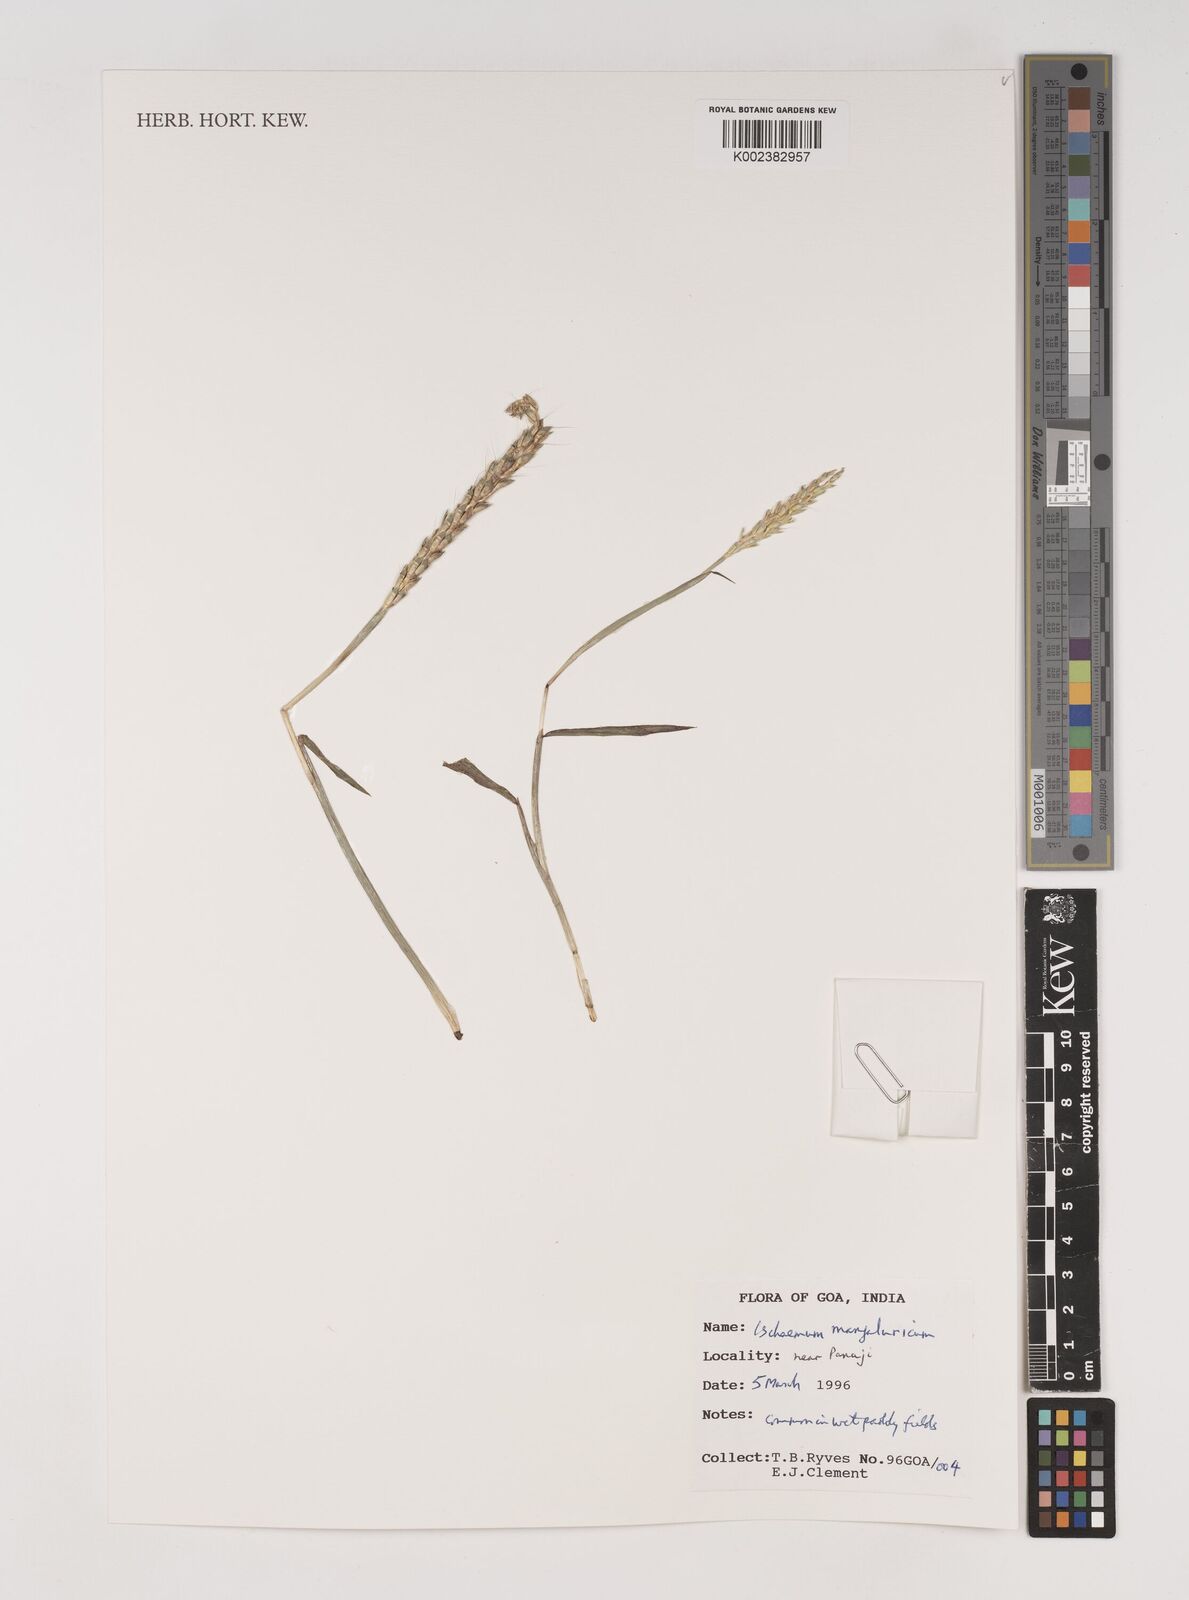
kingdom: Plantae
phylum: Tracheophyta
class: Liliopsida
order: Poales
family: Poaceae
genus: Ischaemum
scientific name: Ischaemum barbatum
